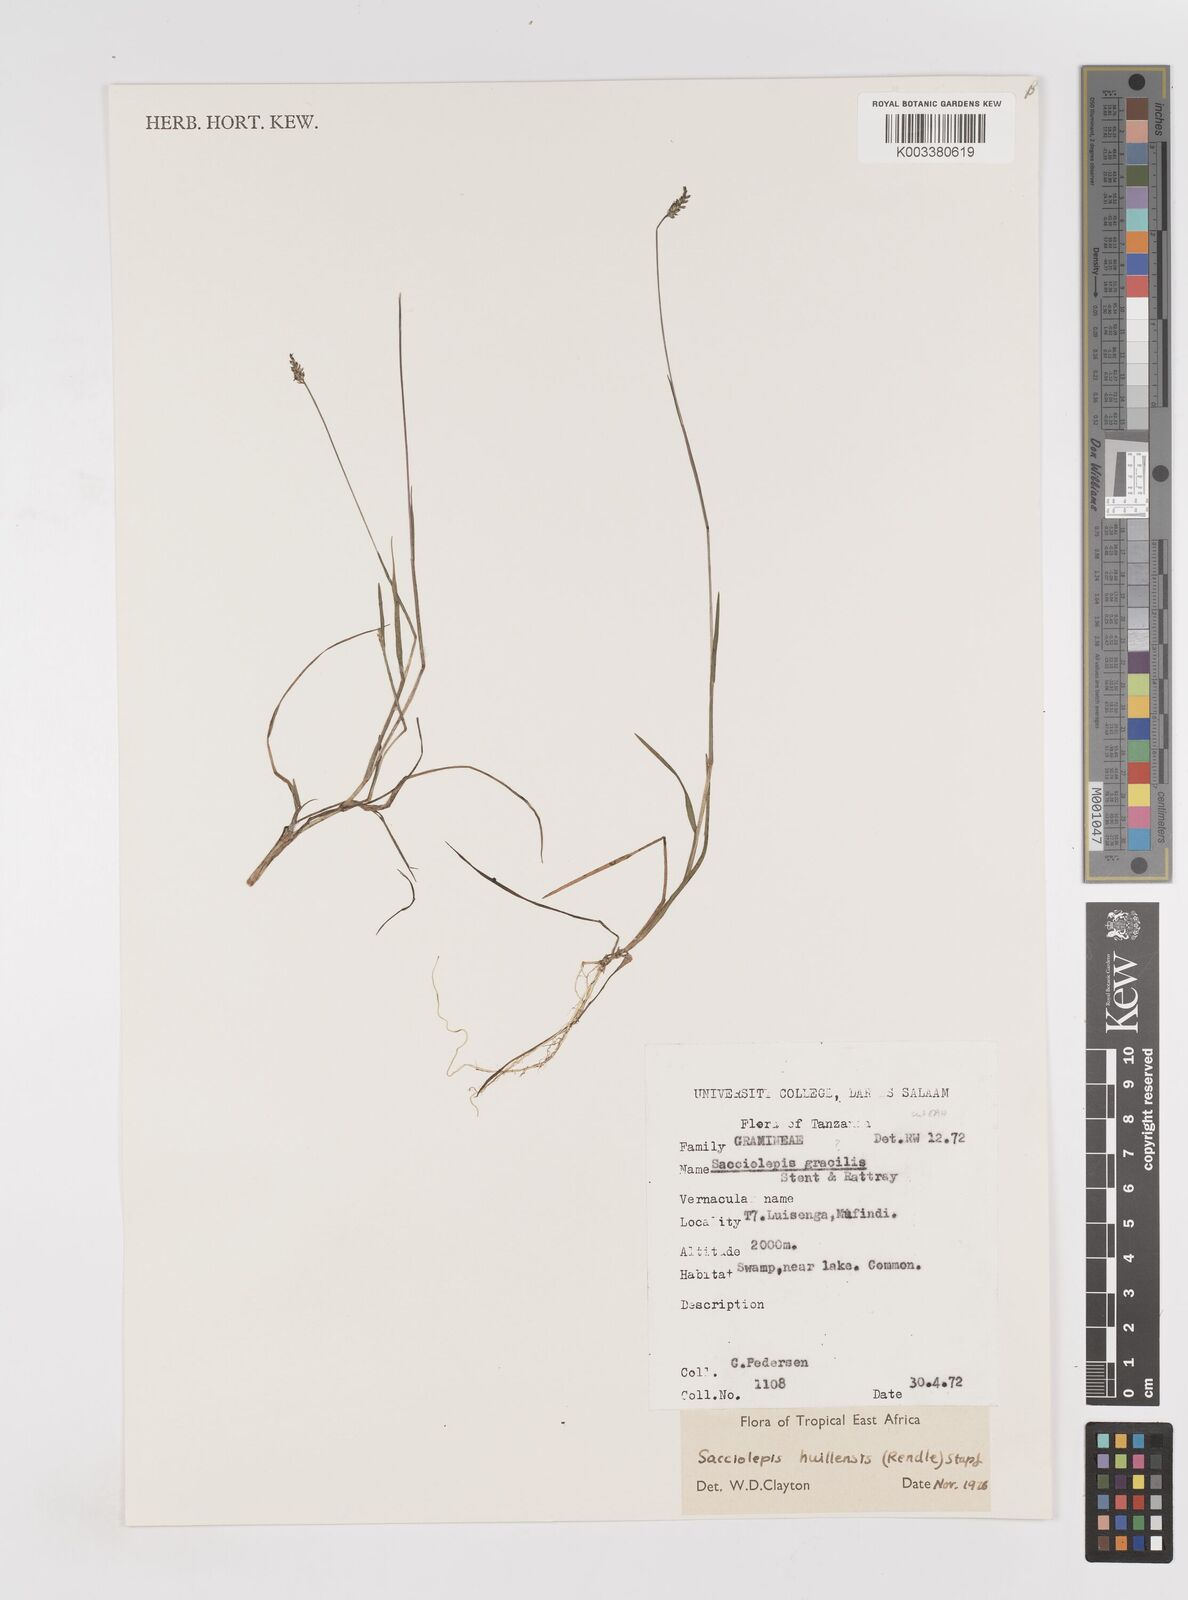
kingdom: Plantae
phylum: Tracheophyta
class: Liliopsida
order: Poales
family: Poaceae
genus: Sacciolepis
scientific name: Sacciolepis myosuroides
